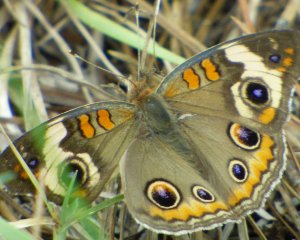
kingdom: Animalia
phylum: Arthropoda
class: Insecta
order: Lepidoptera
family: Nymphalidae
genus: Junonia
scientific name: Junonia coenia
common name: Common Buckeye
